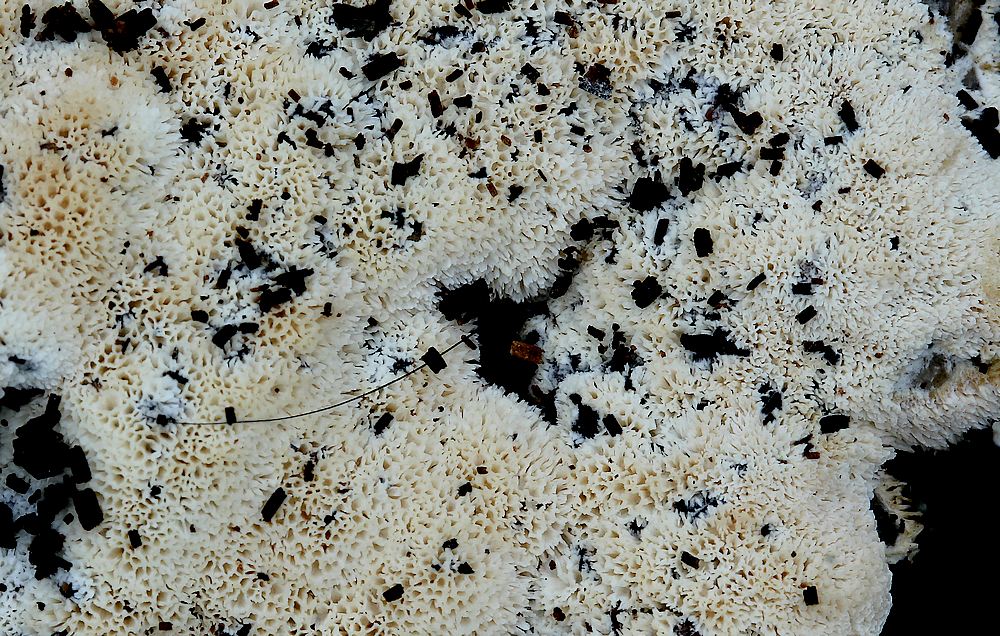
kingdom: Fungi
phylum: Basidiomycota
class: Agaricomycetes
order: Hymenochaetales
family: Schizoporaceae
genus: Xylodon
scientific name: Xylodon subtropicus
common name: labyrint-tandsvamp
